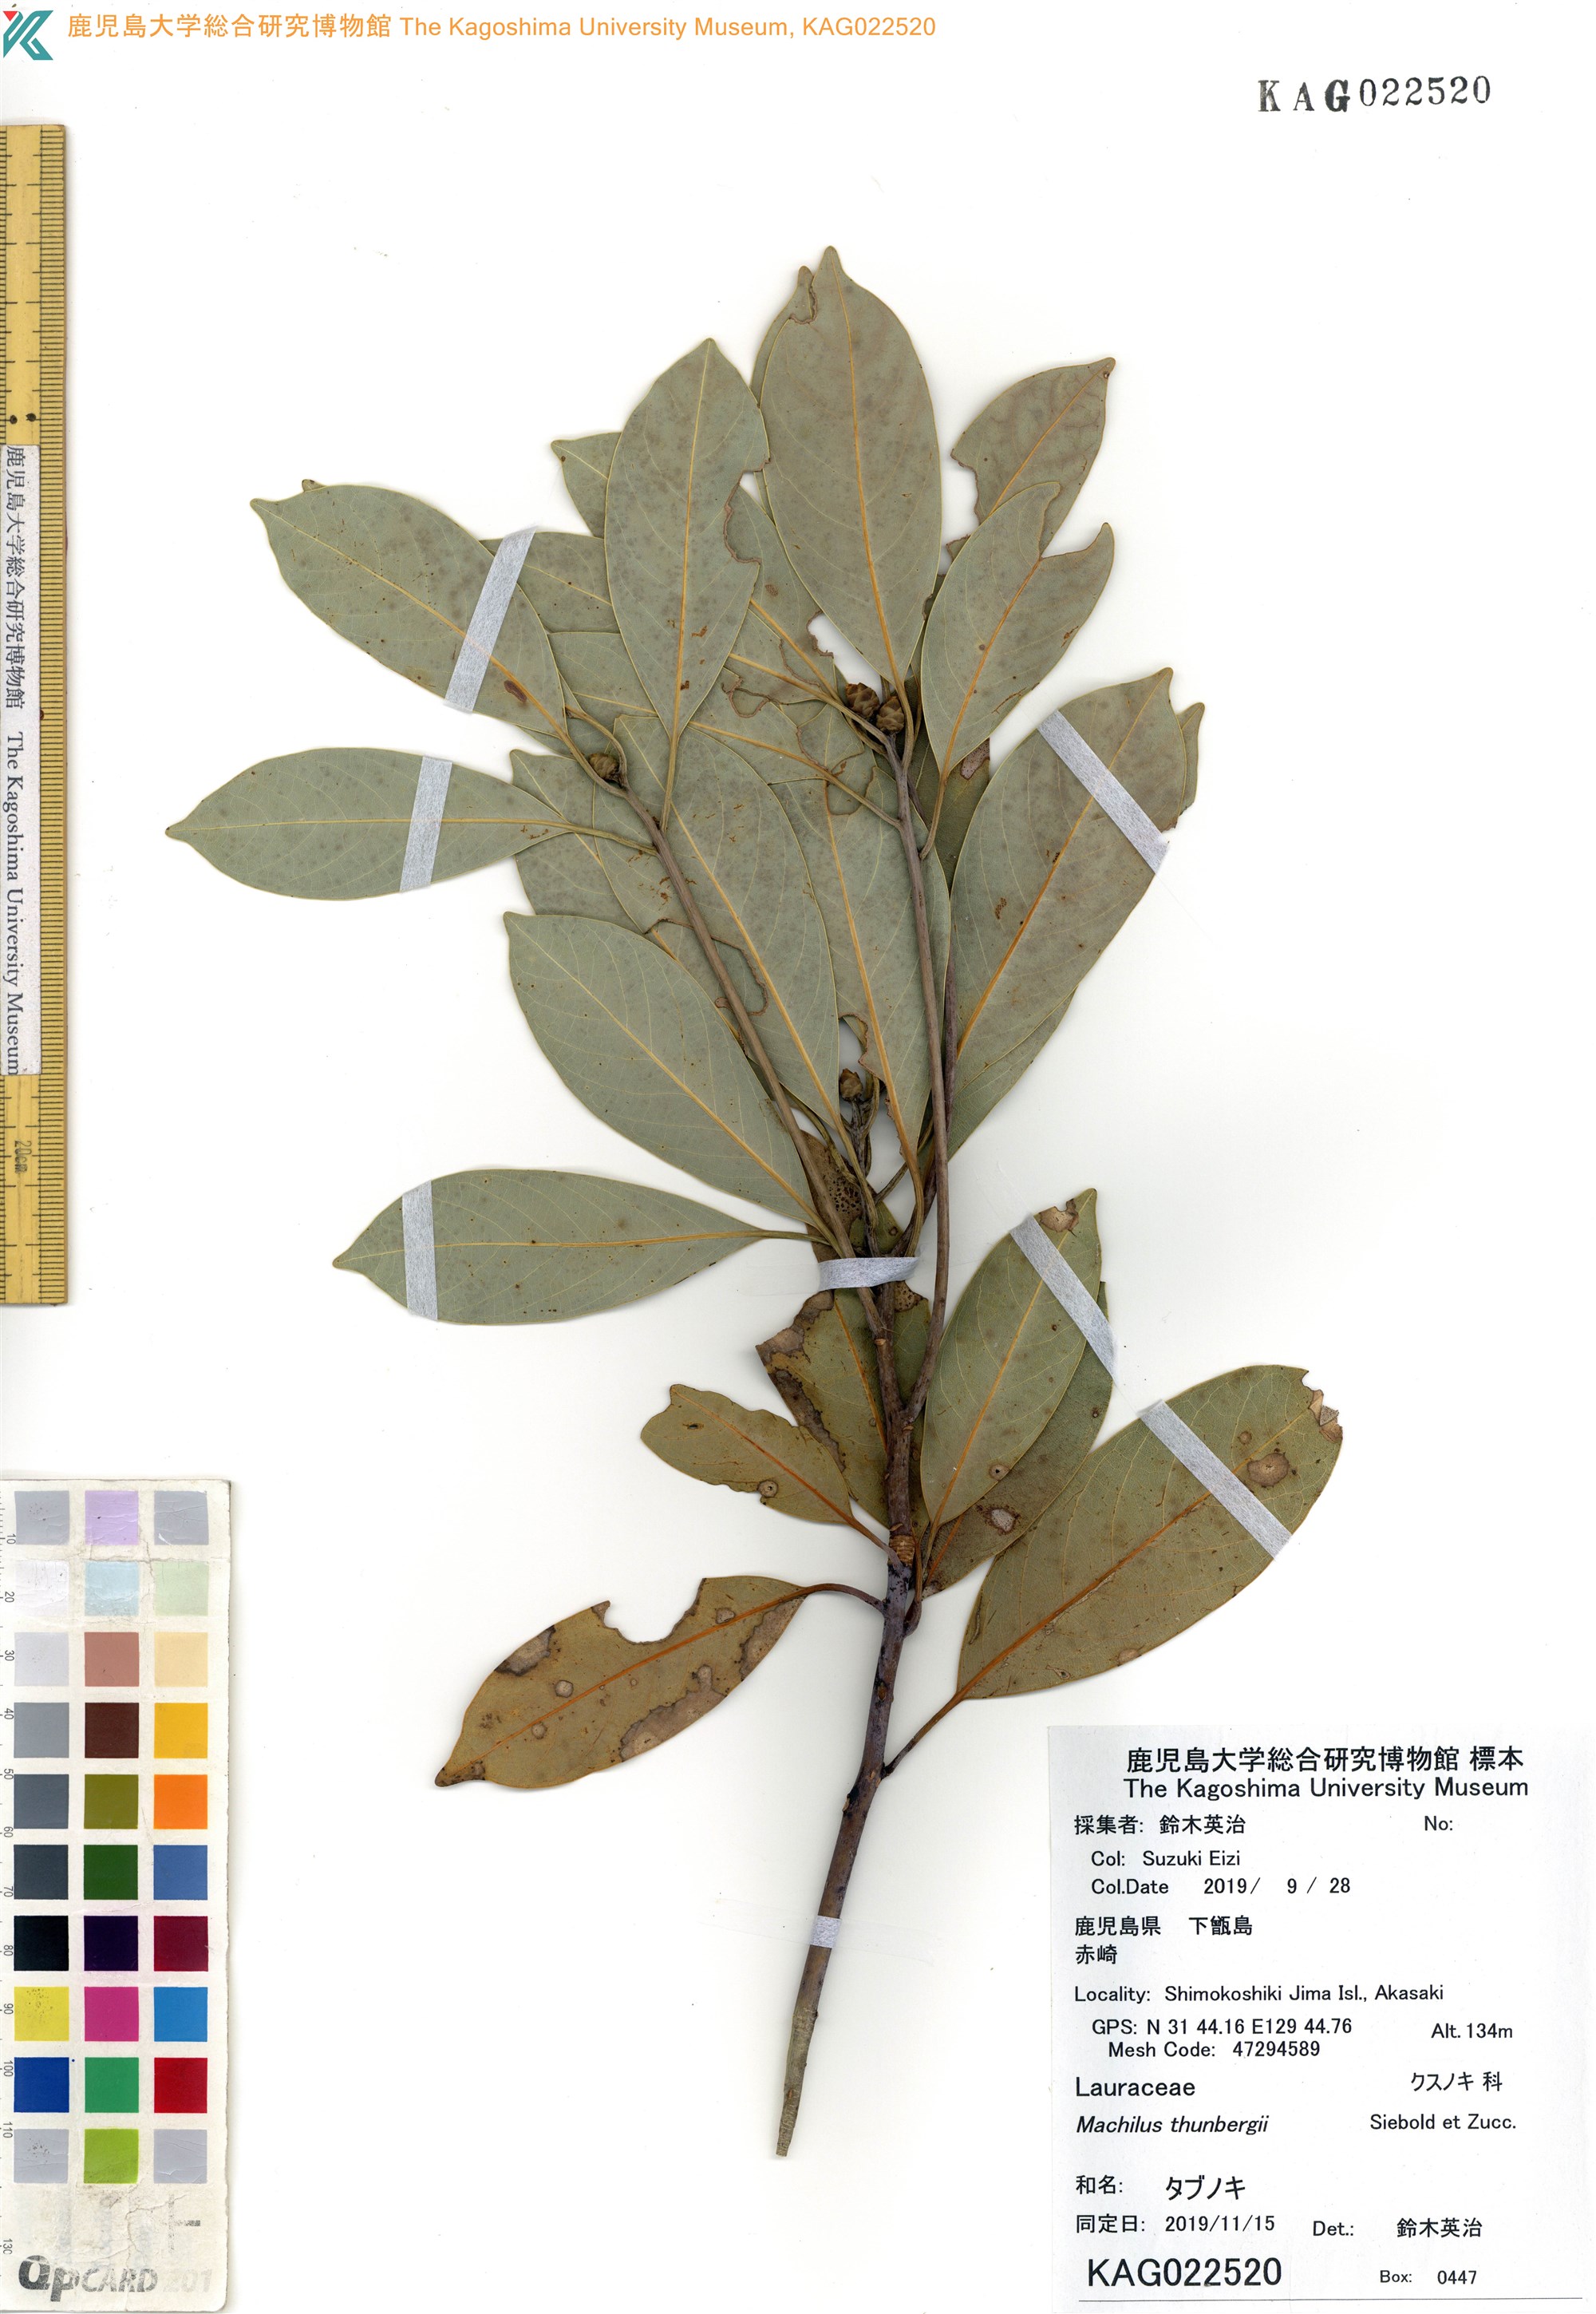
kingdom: Plantae
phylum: Tracheophyta
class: Magnoliopsida
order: Laurales
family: Lauraceae
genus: Machilus
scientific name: Machilus thunbergii
